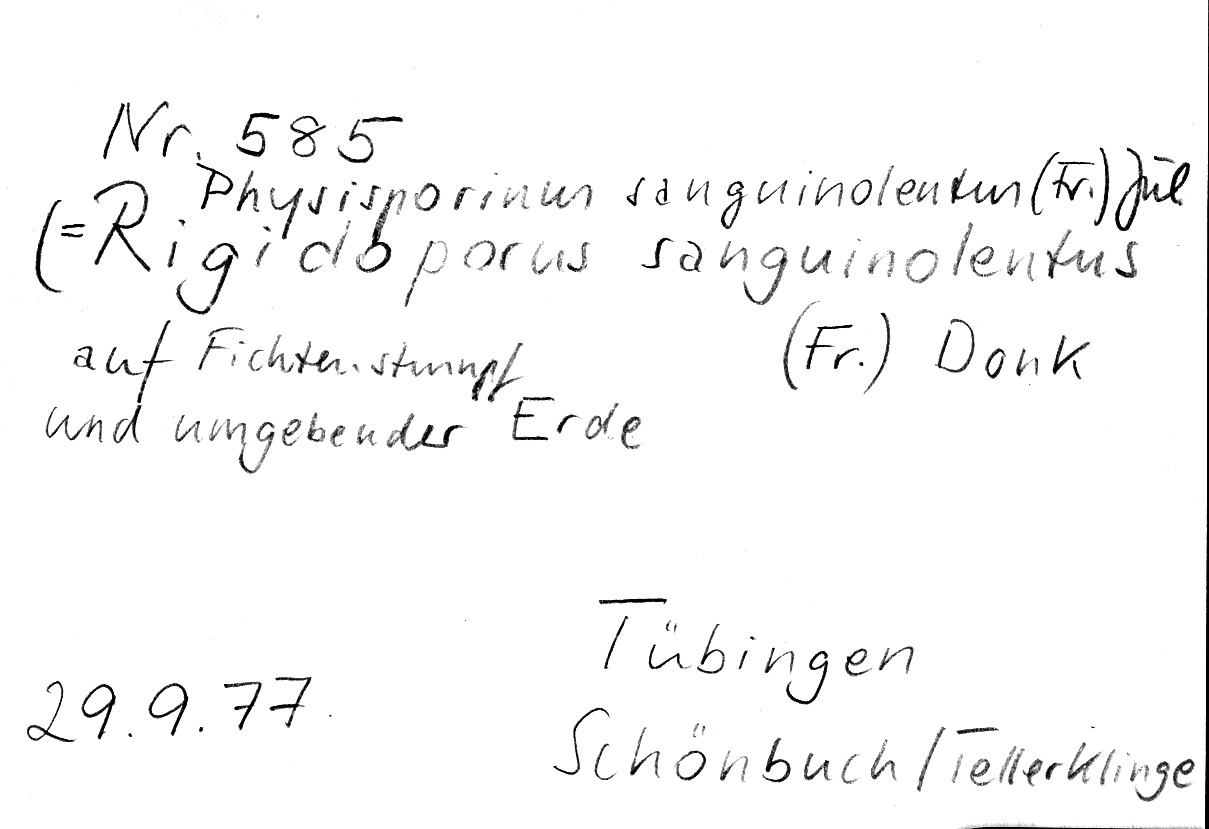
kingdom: Fungi
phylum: Basidiomycota
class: Agaricomycetes
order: Polyporales
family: Meripilaceae
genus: Rigidoporus
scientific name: Rigidoporus sanguinolentus
